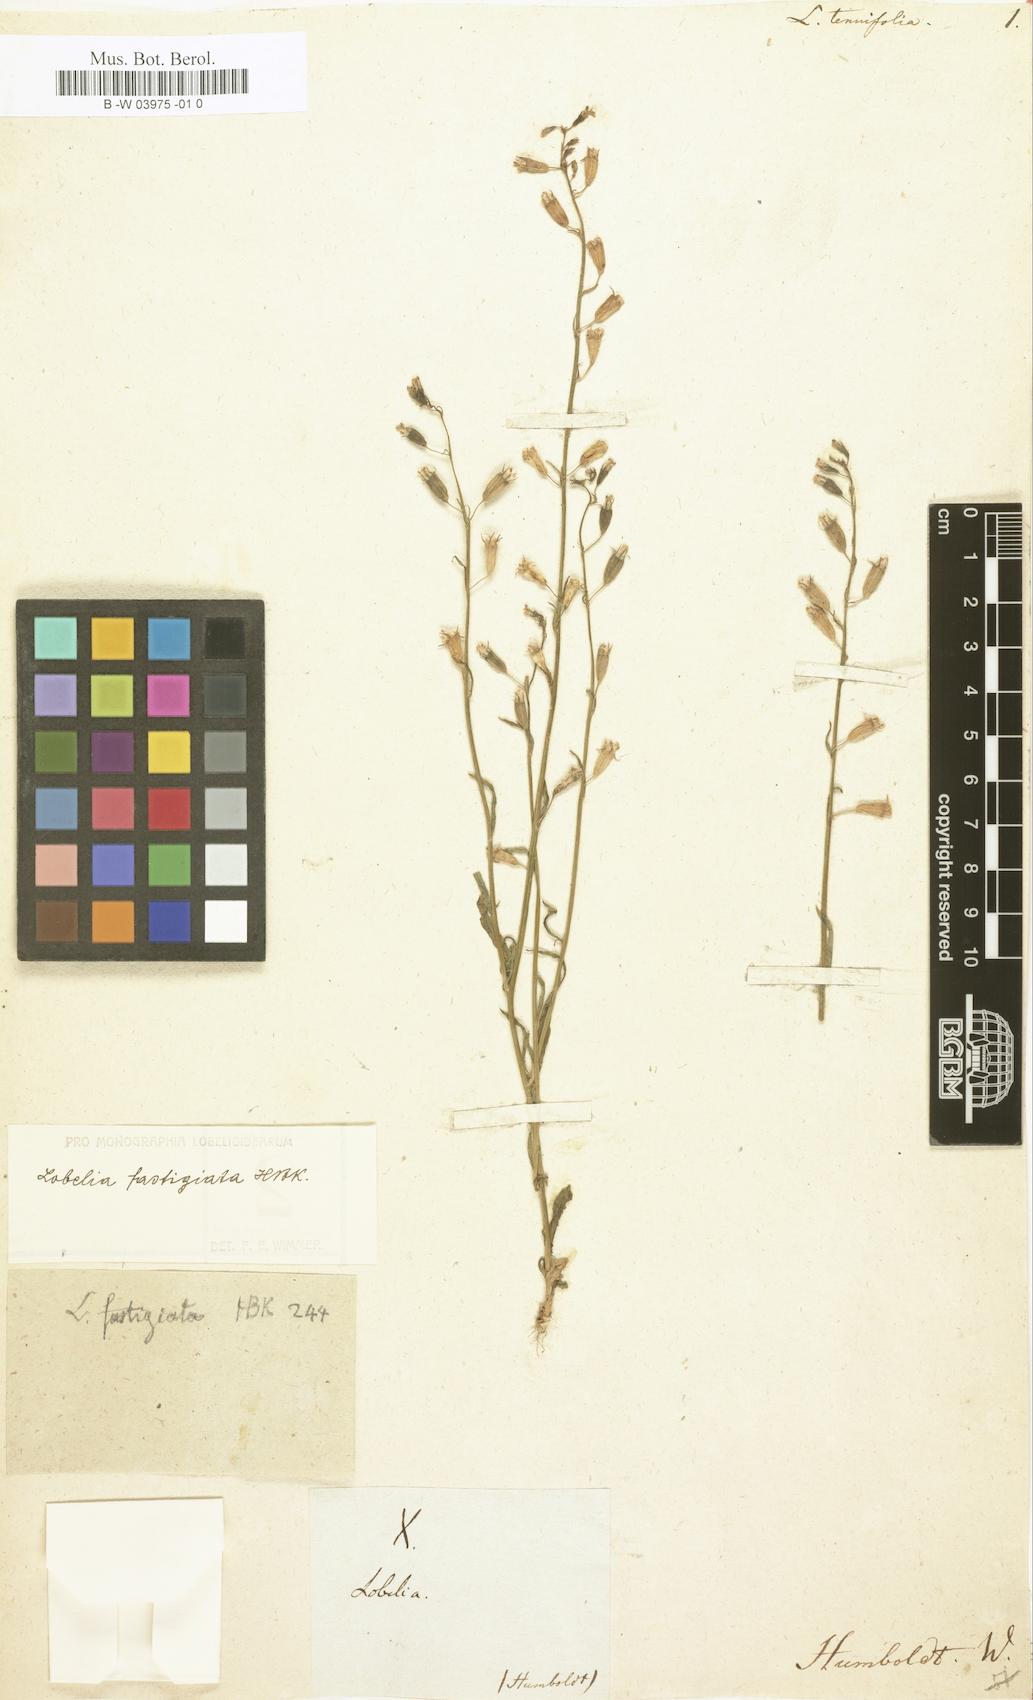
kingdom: Plantae
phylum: Tracheophyta
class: Magnoliopsida
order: Asterales
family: Campanulaceae
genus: Lobelia
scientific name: Lobelia fastigiata
